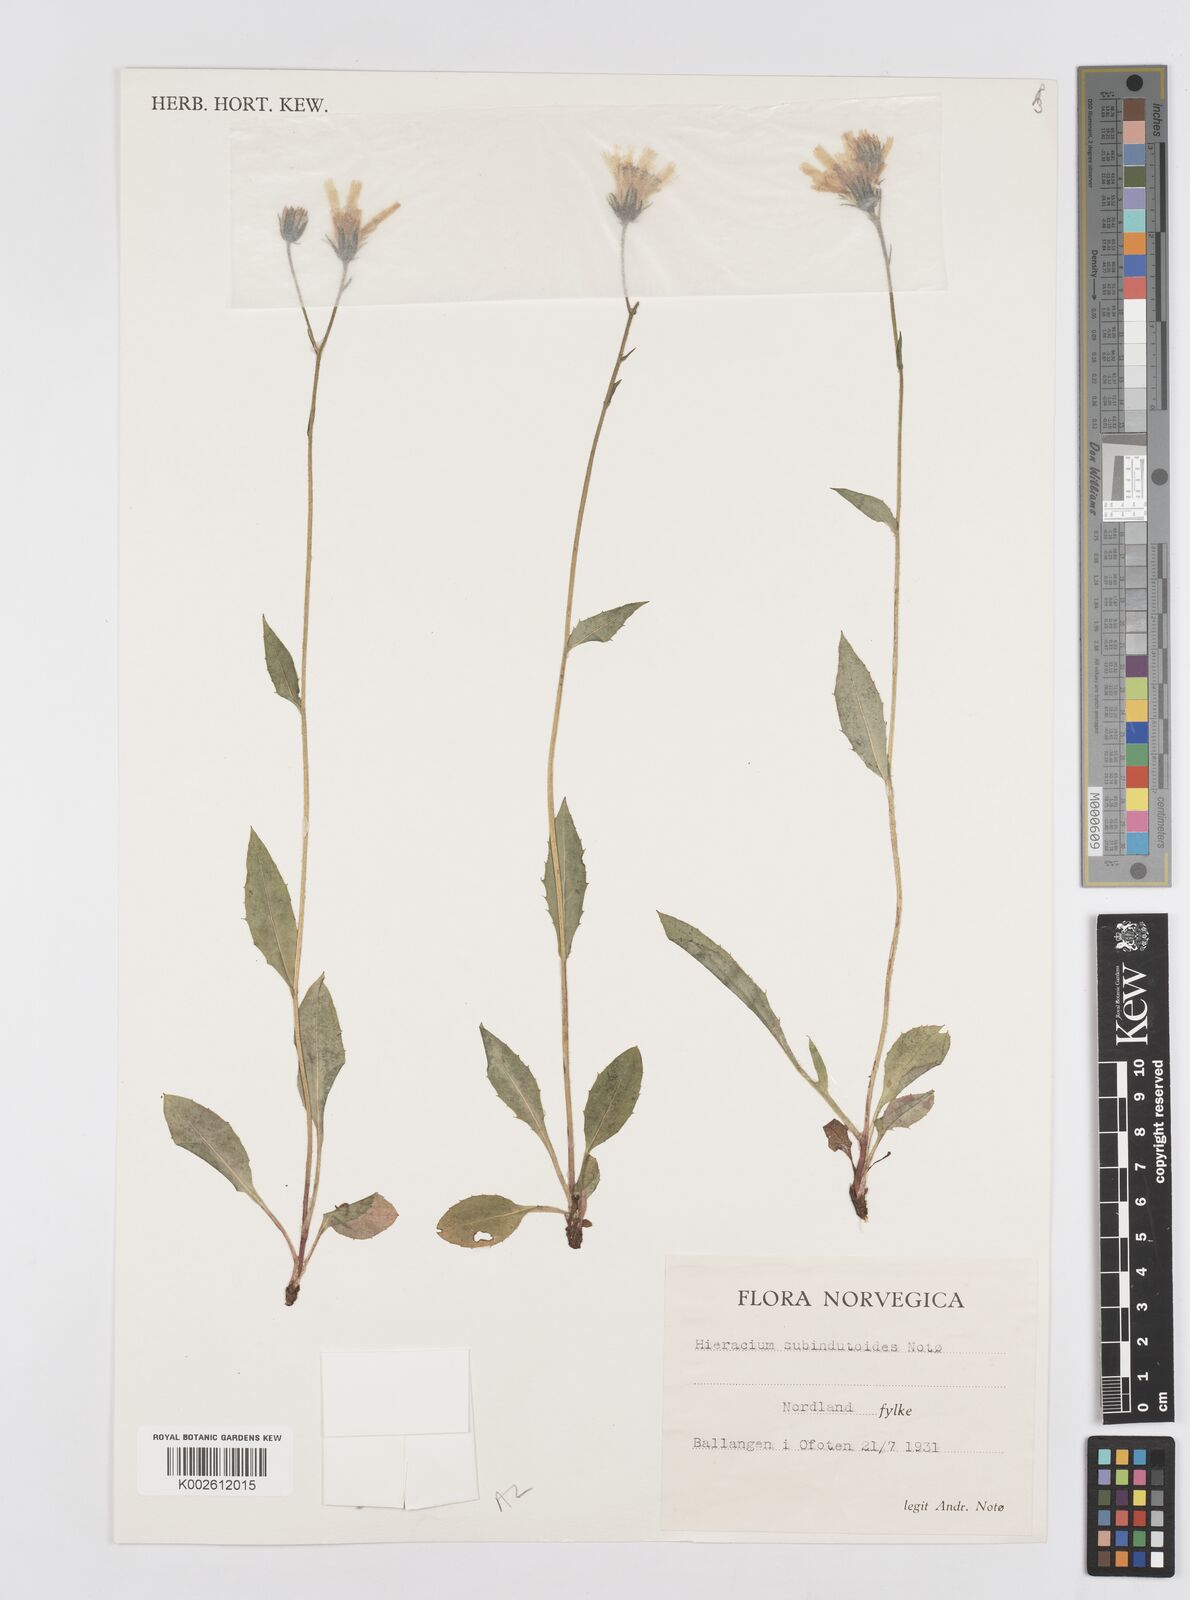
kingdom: Plantae
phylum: Tracheophyta
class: Magnoliopsida
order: Asterales
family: Asteraceae
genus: Hieracium
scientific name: Hieracium subindutoides
